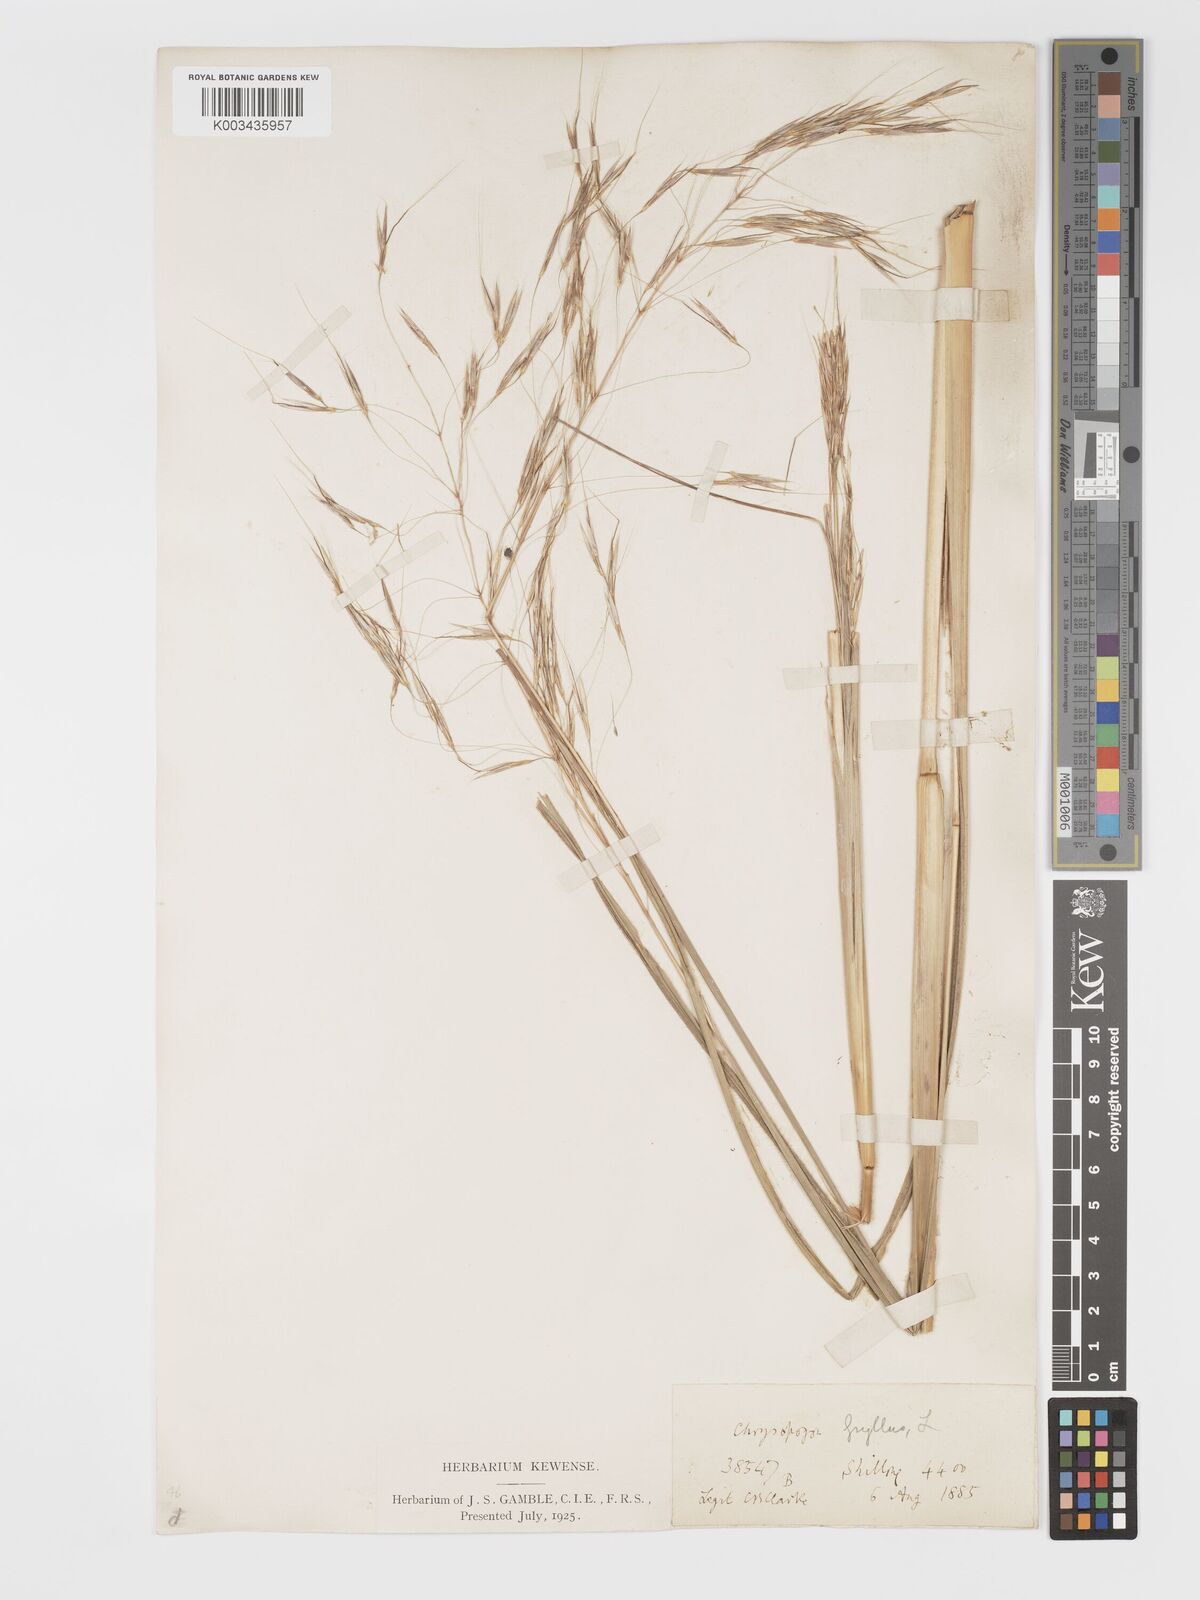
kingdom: Plantae
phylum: Tracheophyta
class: Liliopsida
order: Poales
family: Poaceae
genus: Chrysopogon
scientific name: Chrysopogon gryllus
